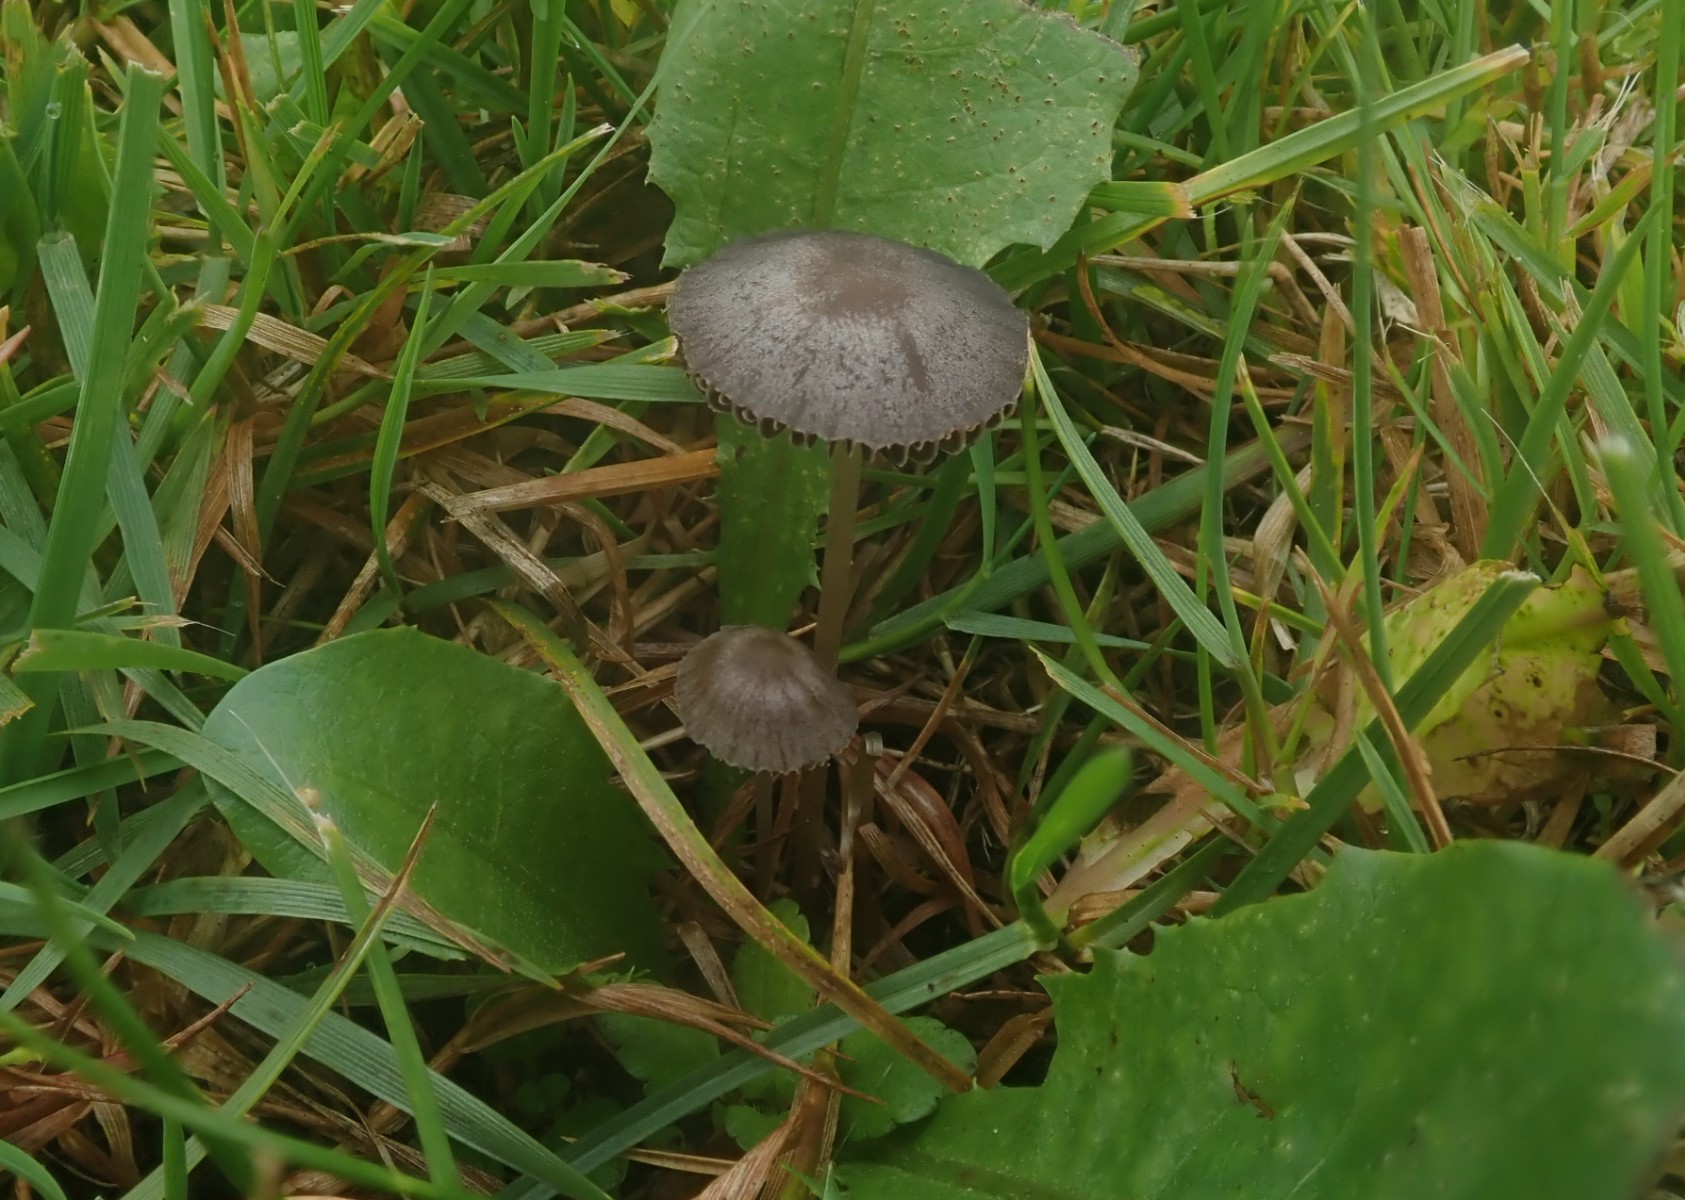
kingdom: Fungi
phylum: Basidiomycota
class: Agaricomycetes
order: Agaricales
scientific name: Agaricales
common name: champignonordenen
